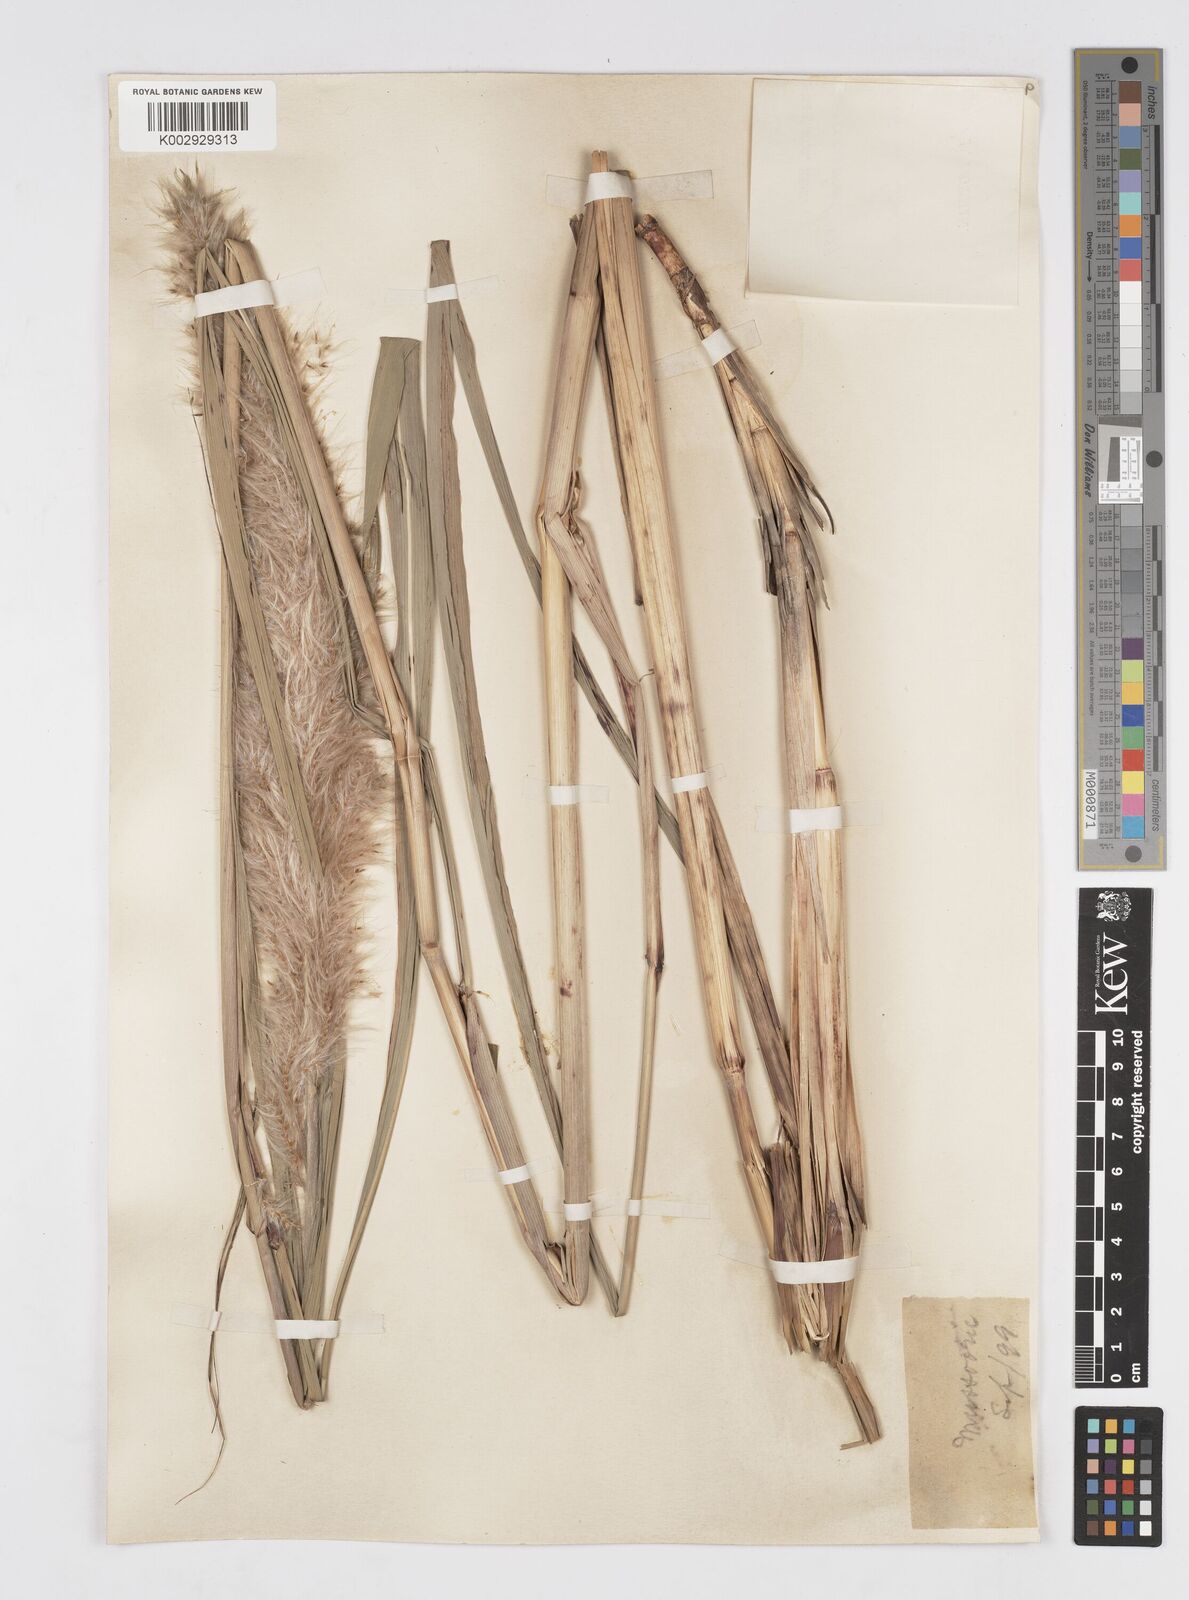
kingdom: Plantae
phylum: Tracheophyta
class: Liliopsida
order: Poales
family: Poaceae
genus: Tripidium
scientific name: Tripidium rufipilum
